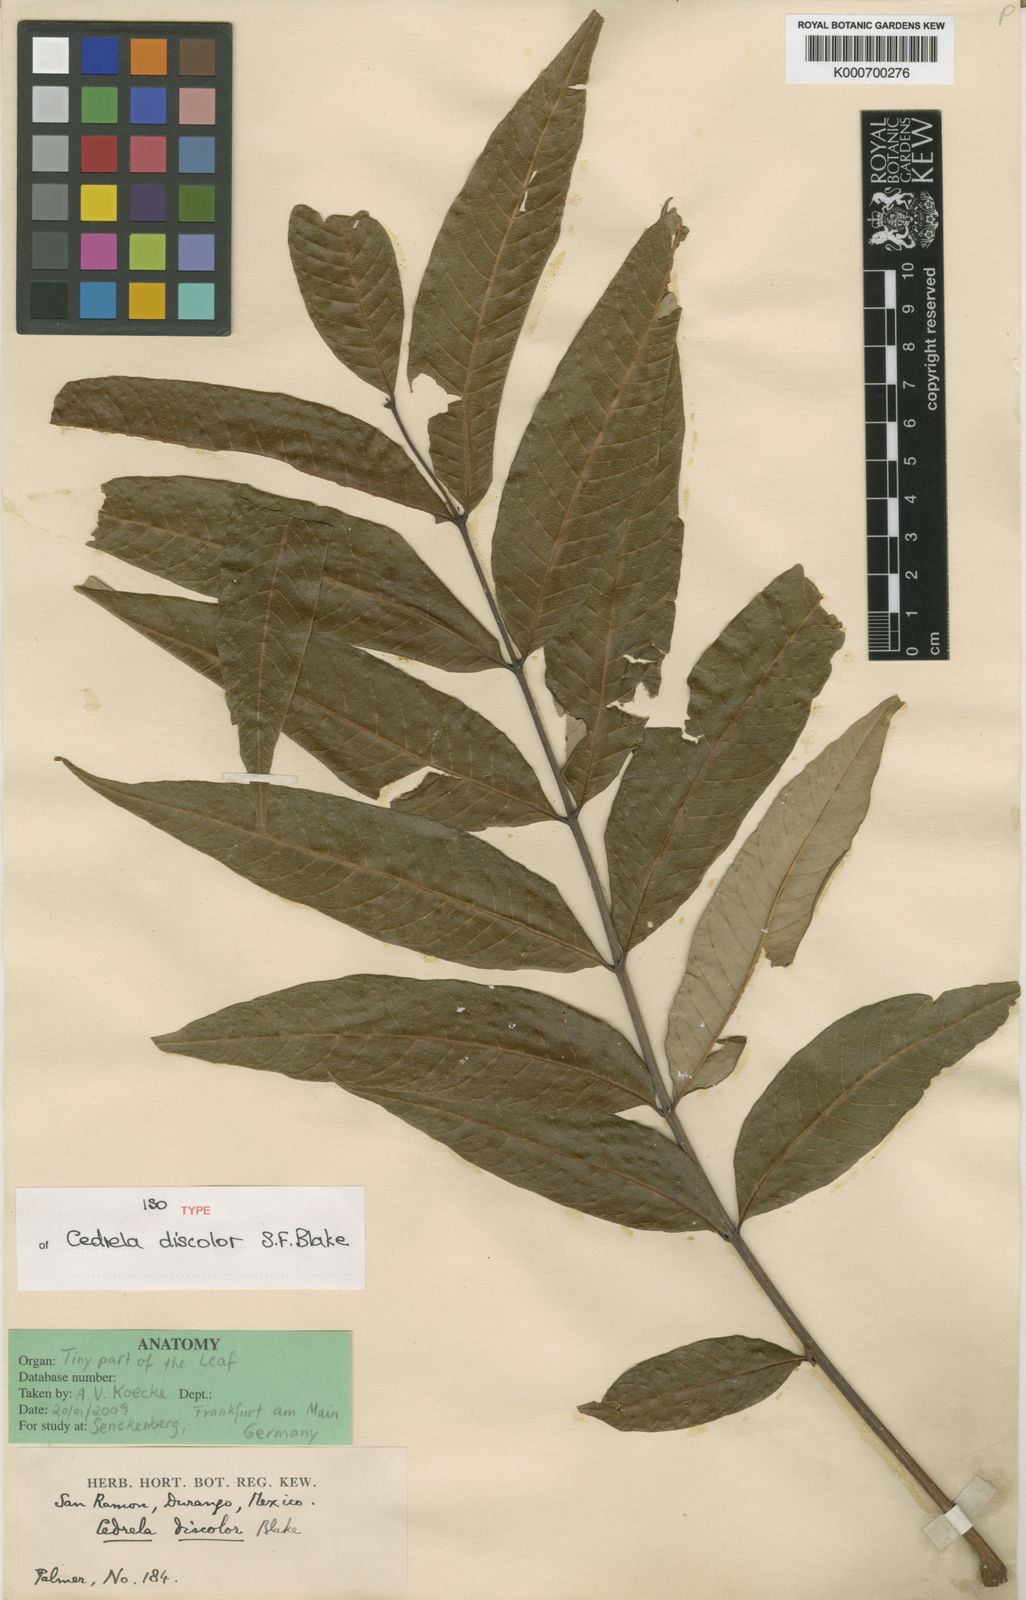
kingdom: Plantae
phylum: Tracheophyta
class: Magnoliopsida
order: Sapindales
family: Meliaceae
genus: Cedrela
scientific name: Cedrela oaxacensis
